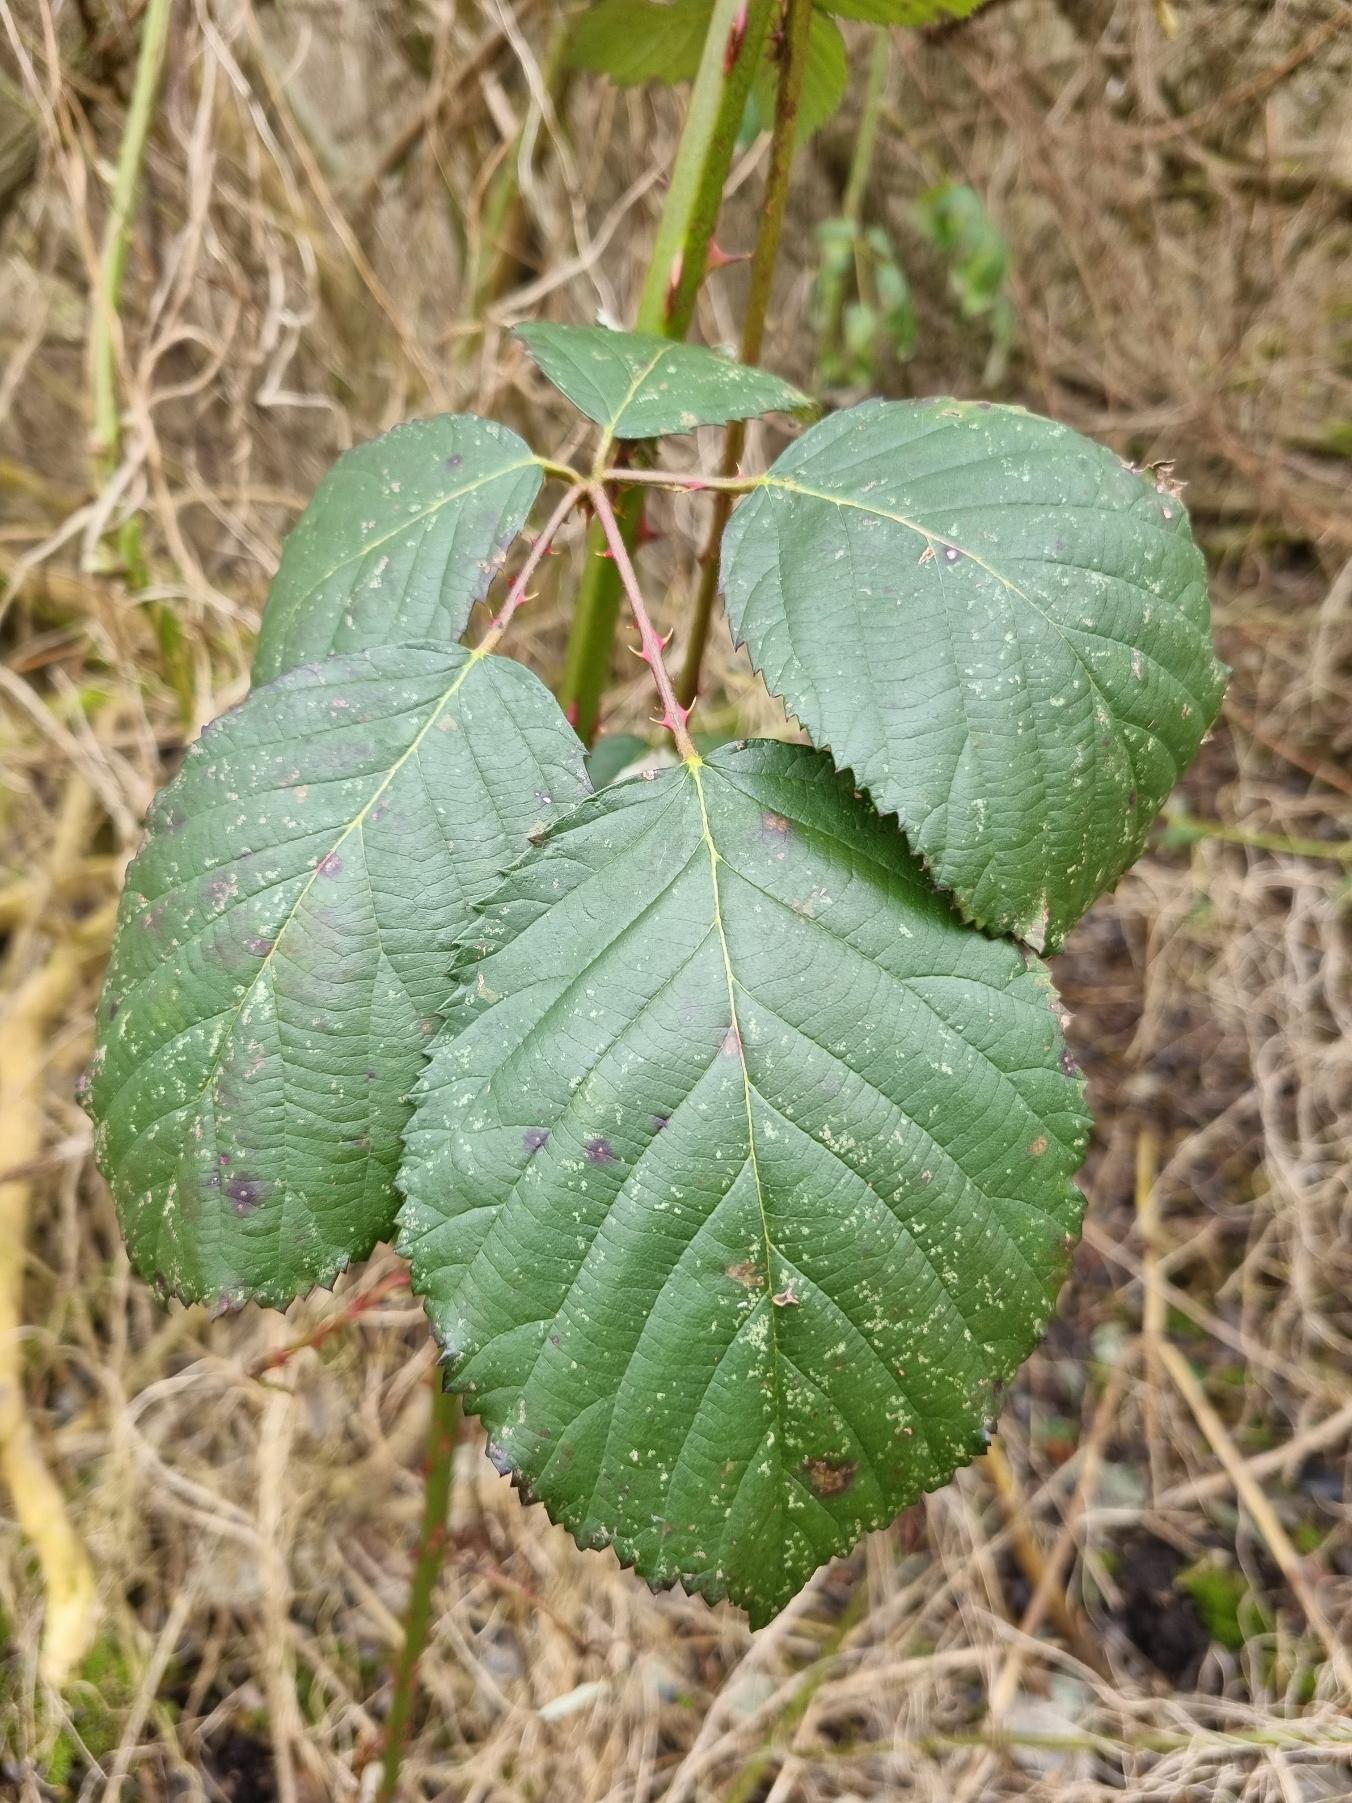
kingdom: Plantae
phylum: Tracheophyta
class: Magnoliopsida
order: Rosales
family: Rosaceae
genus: Rubus
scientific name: Rubus armeniacus
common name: Armensk brombær
